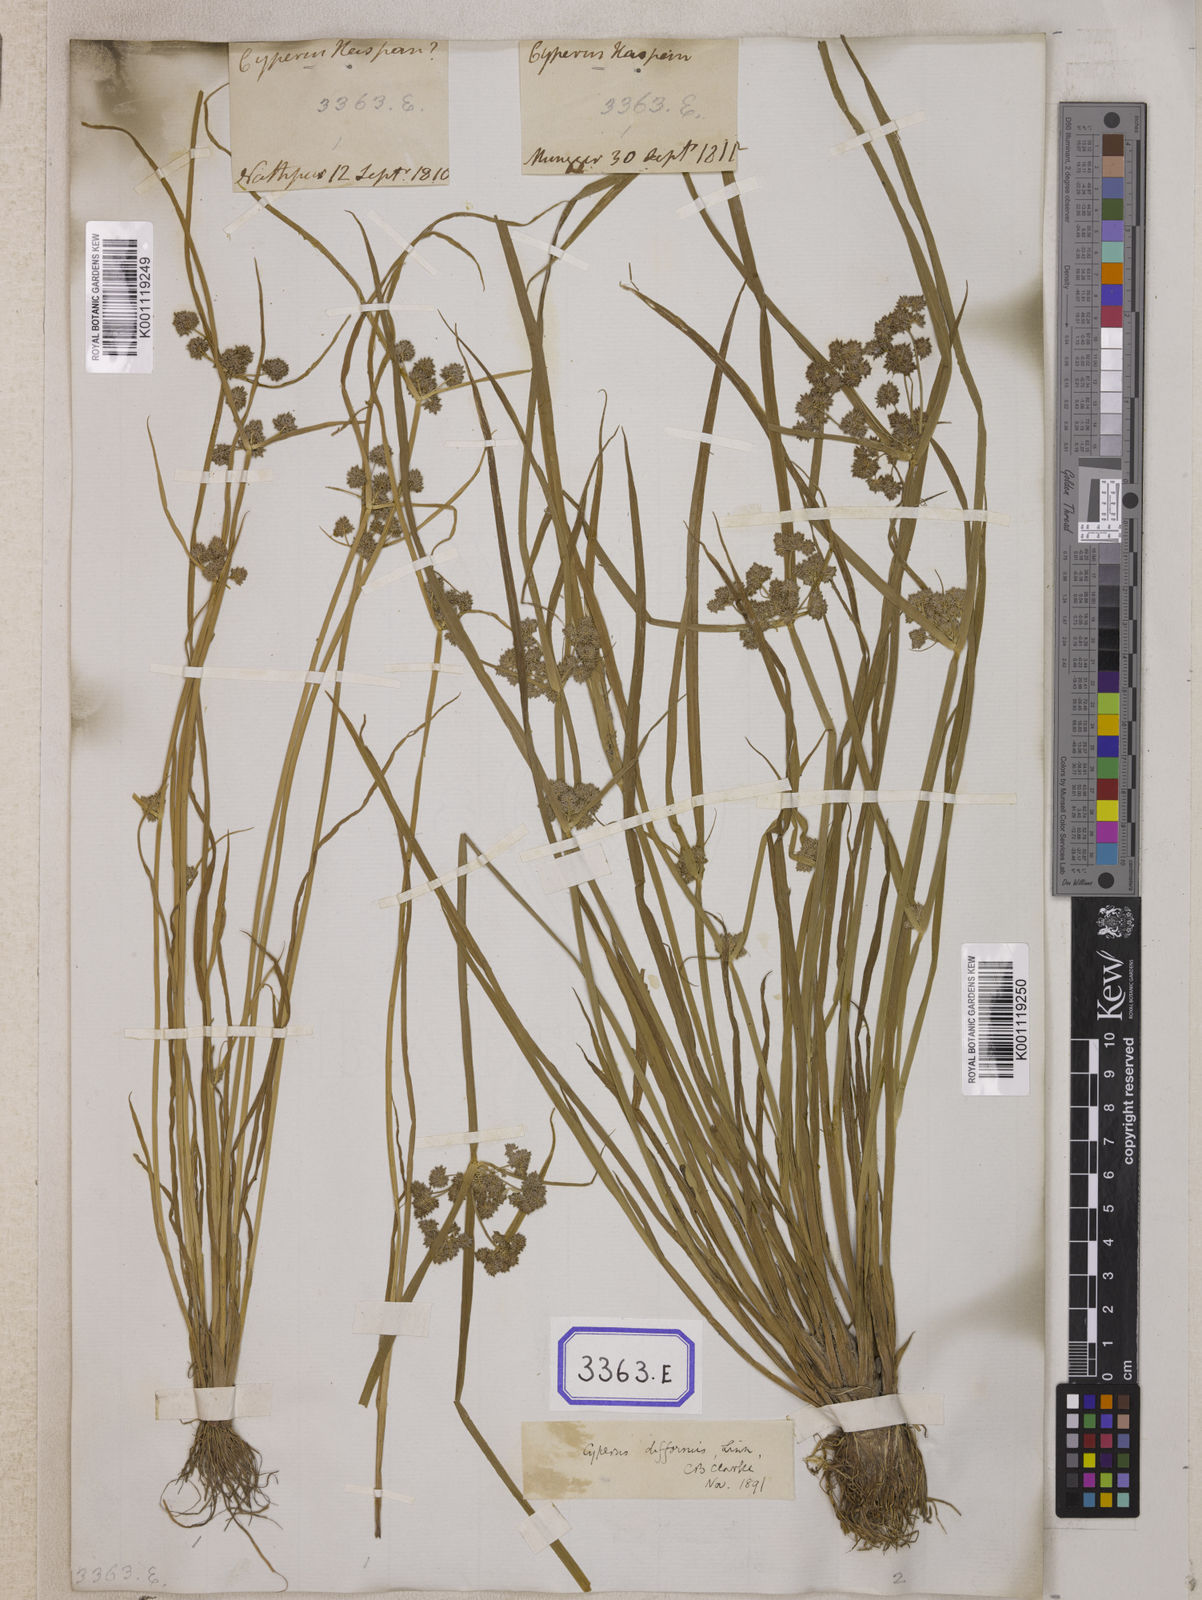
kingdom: Plantae
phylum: Tracheophyta
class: Liliopsida
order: Poales
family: Cyperaceae
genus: Cyperus
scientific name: Cyperus
